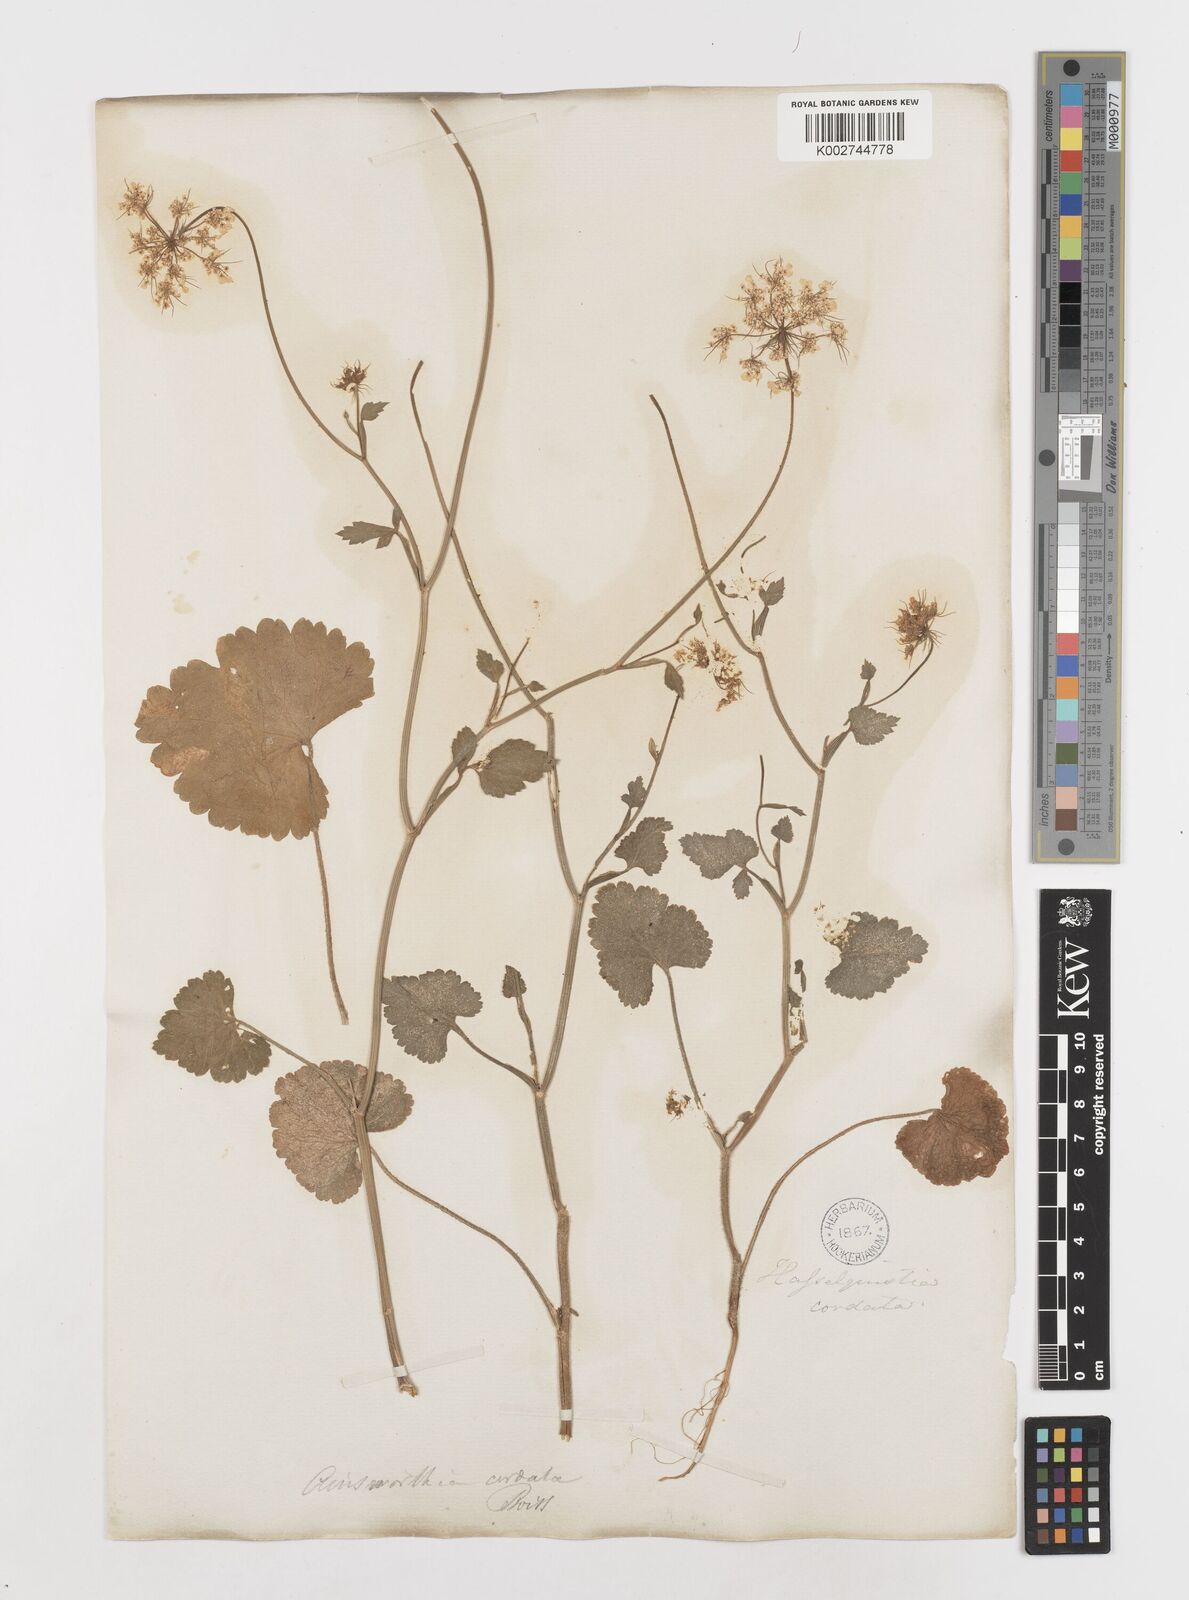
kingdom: Plantae
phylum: Tracheophyta
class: Magnoliopsida
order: Apiales
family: Apiaceae
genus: Ainsworthia
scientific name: Ainsworthia cordata
